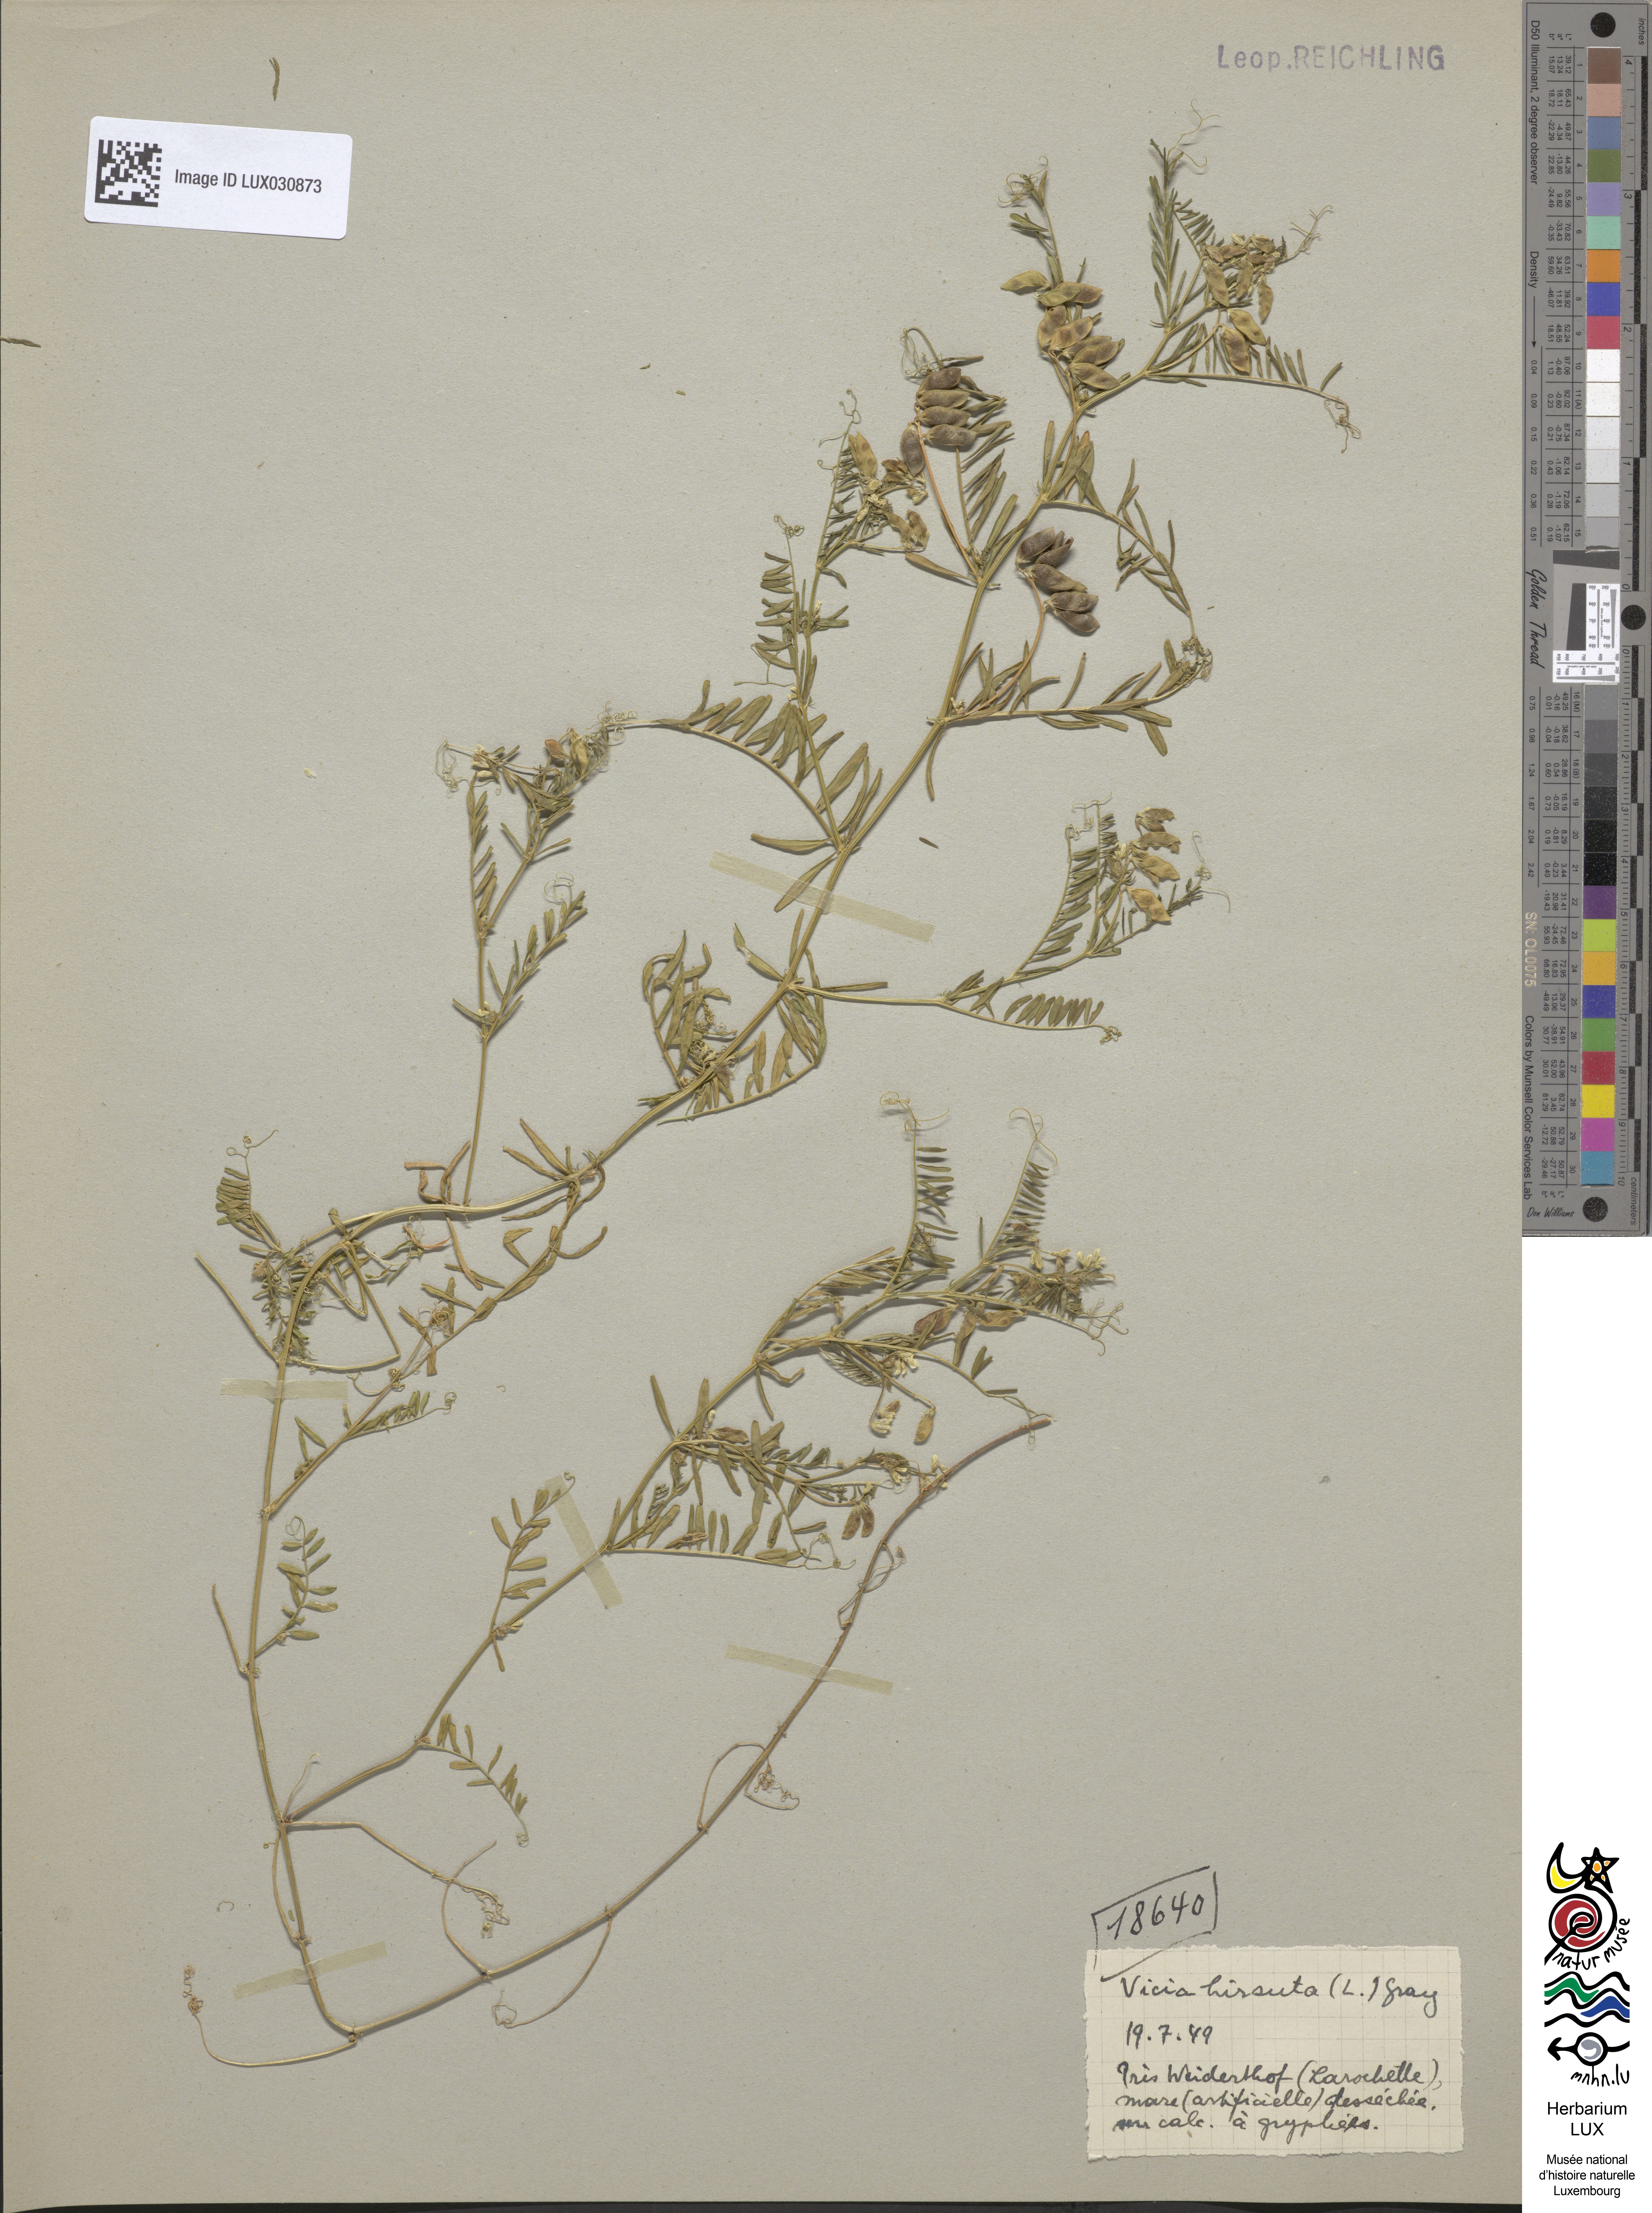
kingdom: Plantae
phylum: Tracheophyta
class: Magnoliopsida
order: Fabales
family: Fabaceae
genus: Vicia
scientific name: Vicia hirsuta
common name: Tiny vetch
